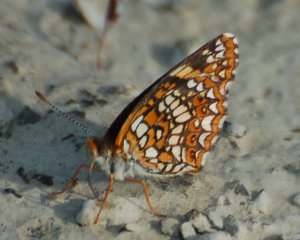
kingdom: Animalia
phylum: Arthropoda
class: Insecta
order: Lepidoptera
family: Nymphalidae
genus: Chlosyne
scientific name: Chlosyne harrisii
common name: Harris's Checkerspot
